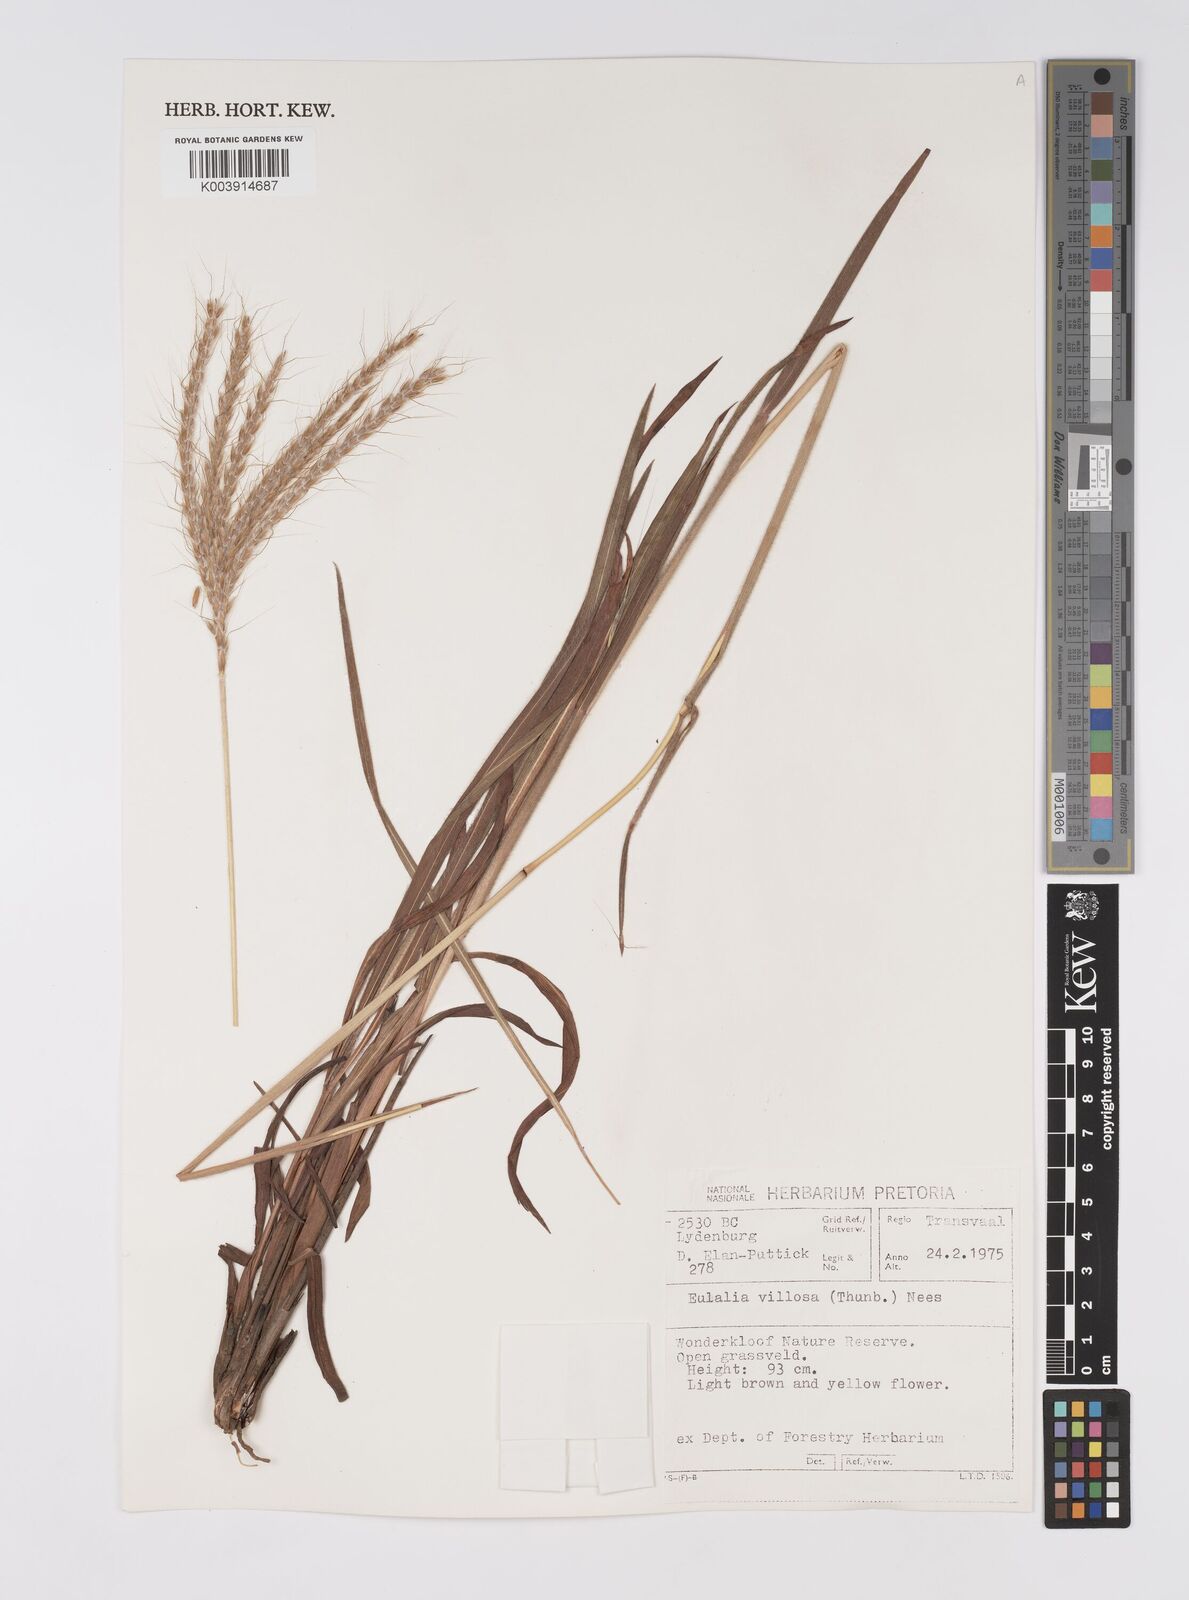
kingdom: Plantae
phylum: Tracheophyta
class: Liliopsida
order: Poales
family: Poaceae
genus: Eulalia
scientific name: Eulalia villosa
